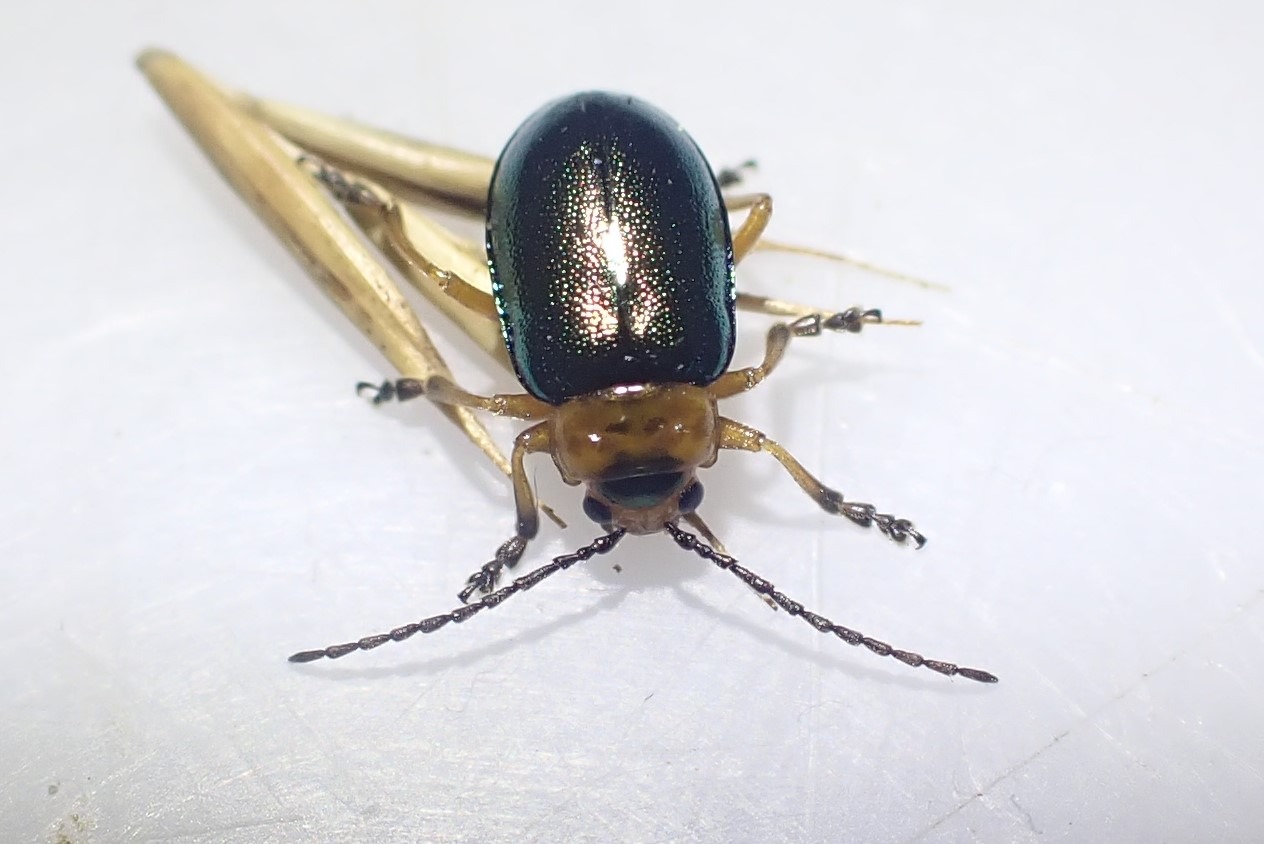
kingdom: Animalia
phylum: Arthropoda
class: Insecta
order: Coleoptera
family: Chrysomelidae
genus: Sermylassa
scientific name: Sermylassa halensis
